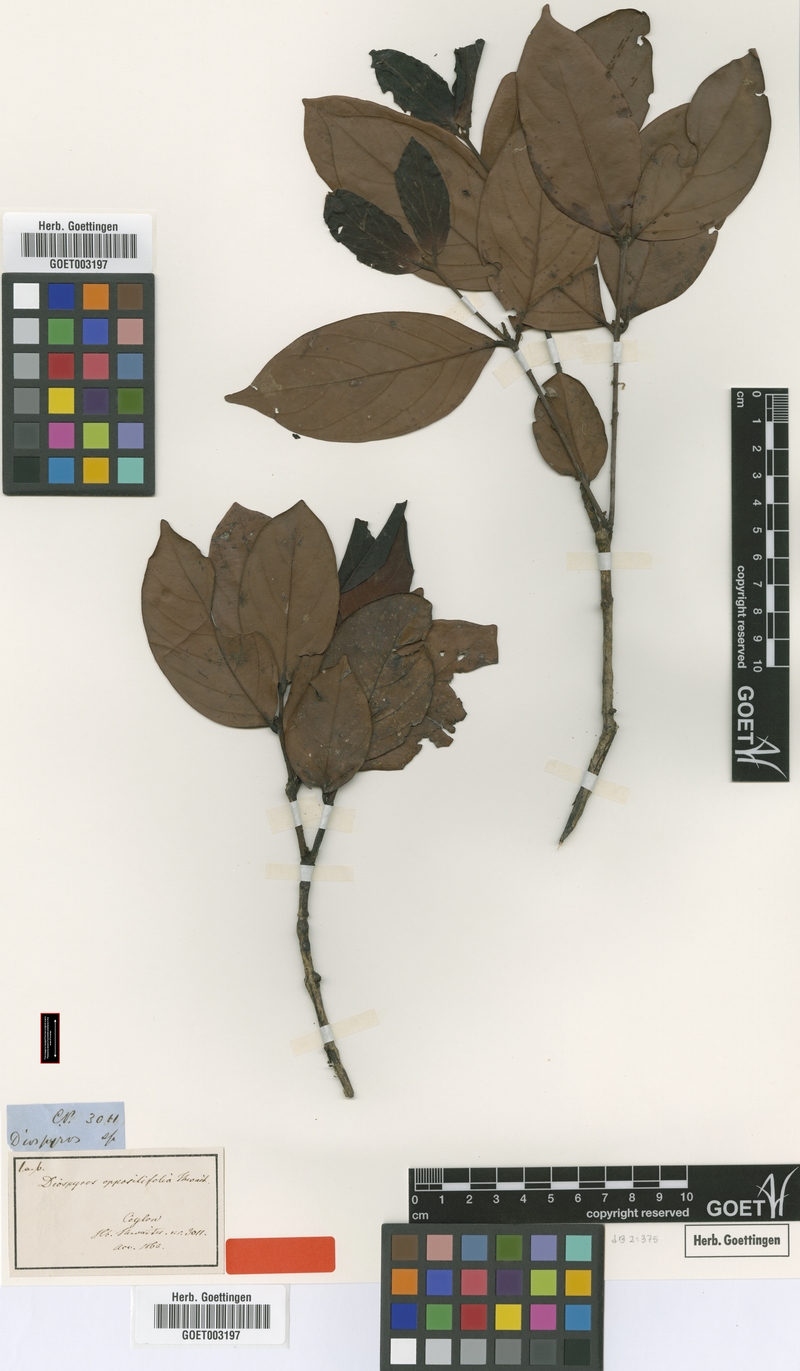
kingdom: Plantae
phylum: Tracheophyta
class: Magnoliopsida
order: Ericales
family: Ebenaceae
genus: Diospyros
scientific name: Diospyros oppositifolia
